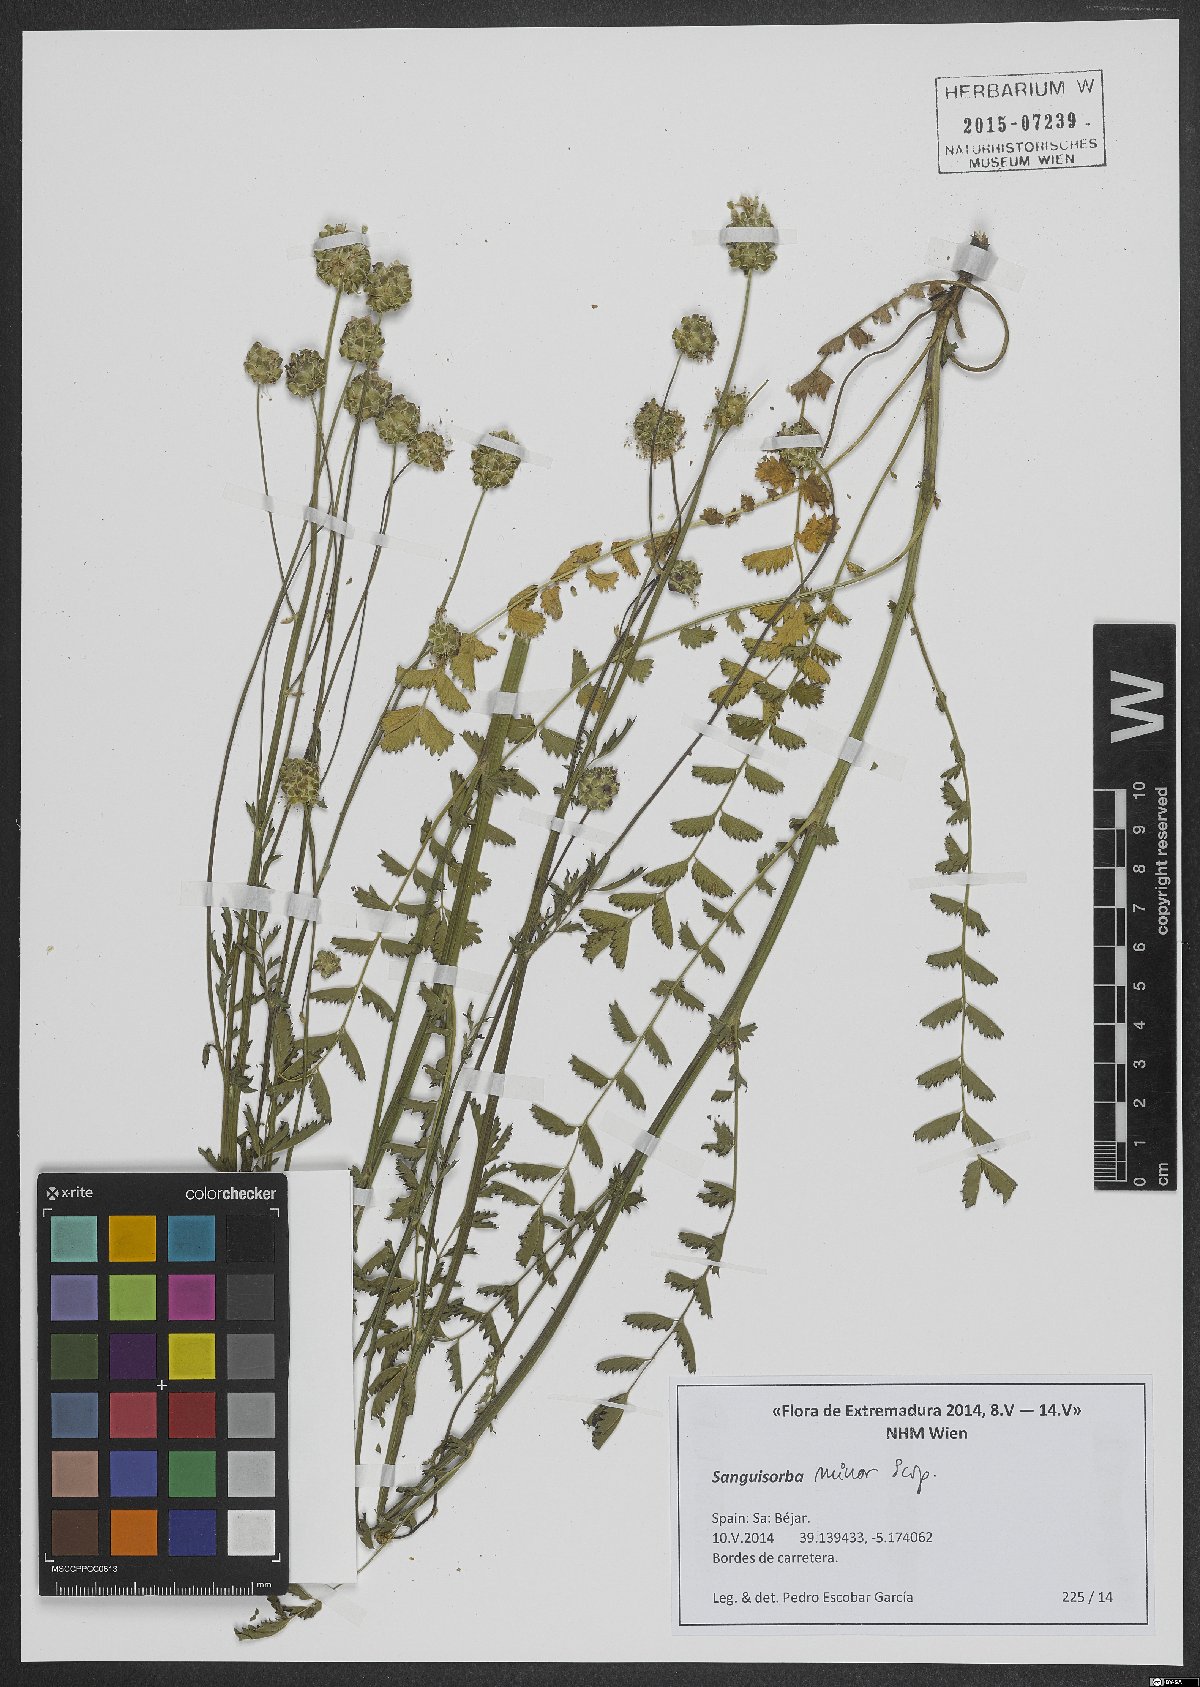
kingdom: Plantae
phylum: Tracheophyta
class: Magnoliopsida
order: Rosales
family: Rosaceae
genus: Poterium
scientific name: Poterium sanguisorba
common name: Salad burnet
